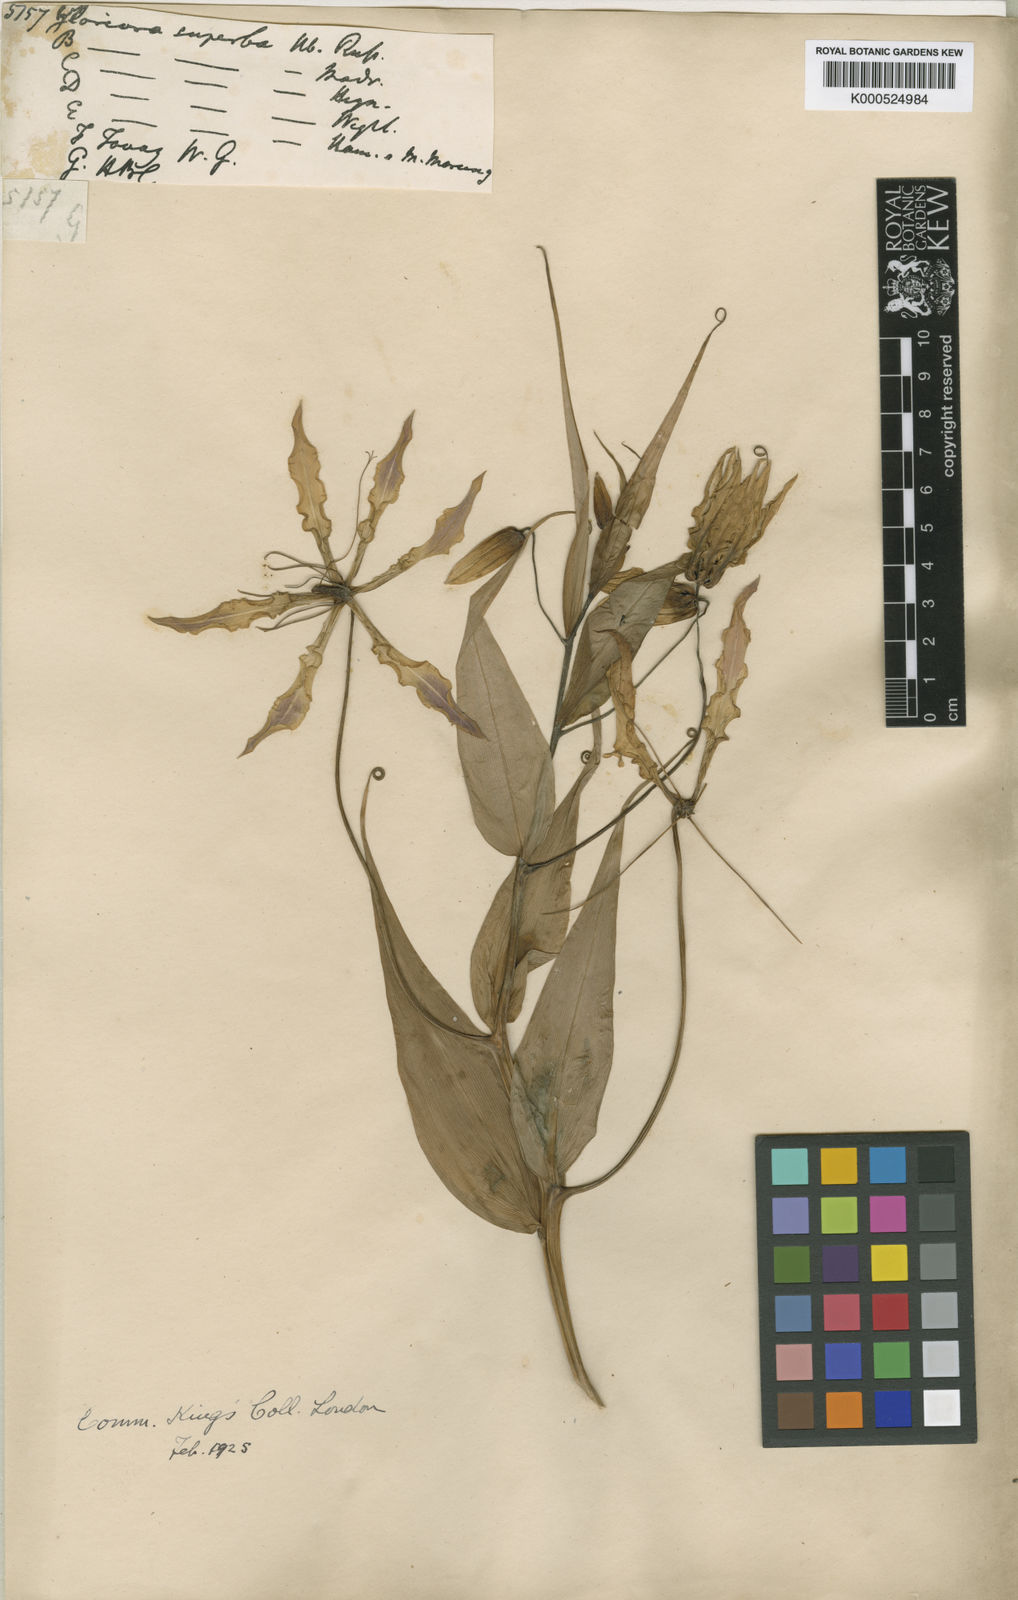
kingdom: Plantae
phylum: Tracheophyta
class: Liliopsida
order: Liliales
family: Colchicaceae
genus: Gloriosa
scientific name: Gloriosa superba
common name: Flame lily
